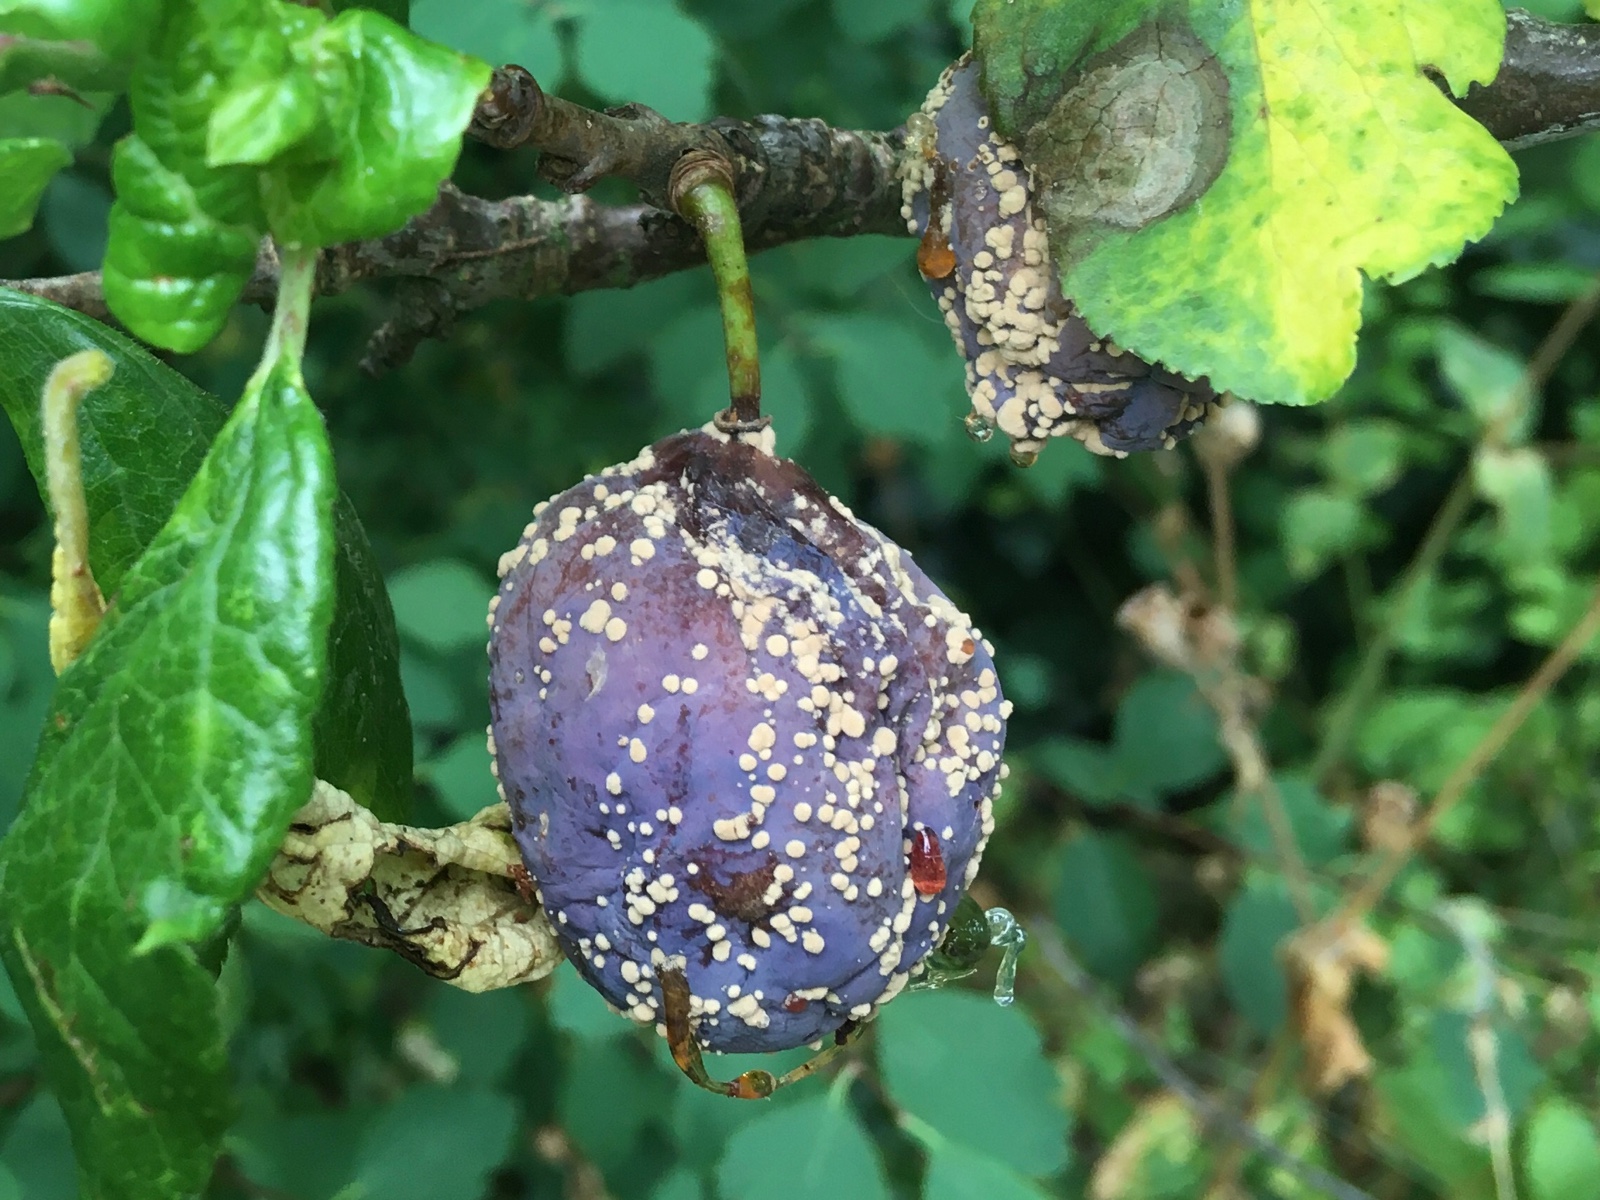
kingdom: Fungi
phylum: Ascomycota
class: Leotiomycetes
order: Helotiales
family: Sclerotiniaceae
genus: Monilinia
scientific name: Monilinia laxa
